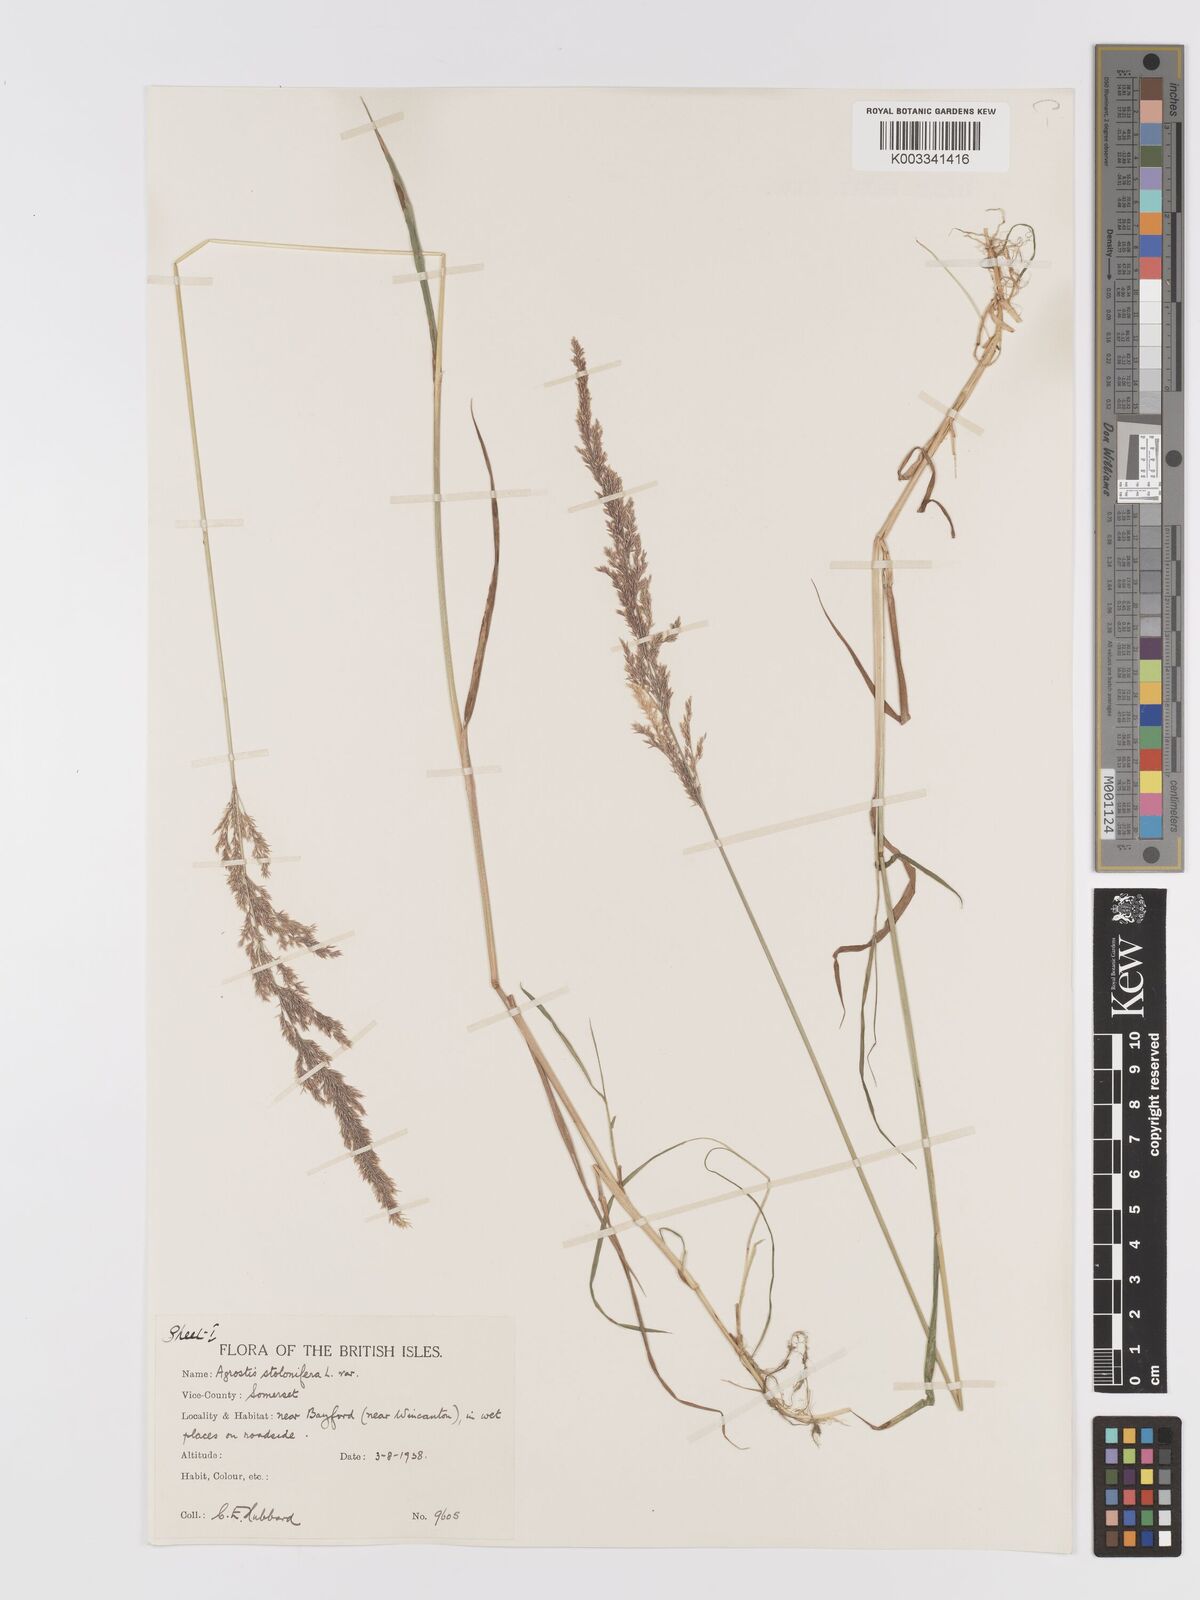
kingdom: Plantae
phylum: Tracheophyta
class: Liliopsida
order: Poales
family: Poaceae
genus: Agrostis
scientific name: Agrostis stolonifera
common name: Creeping bentgrass
